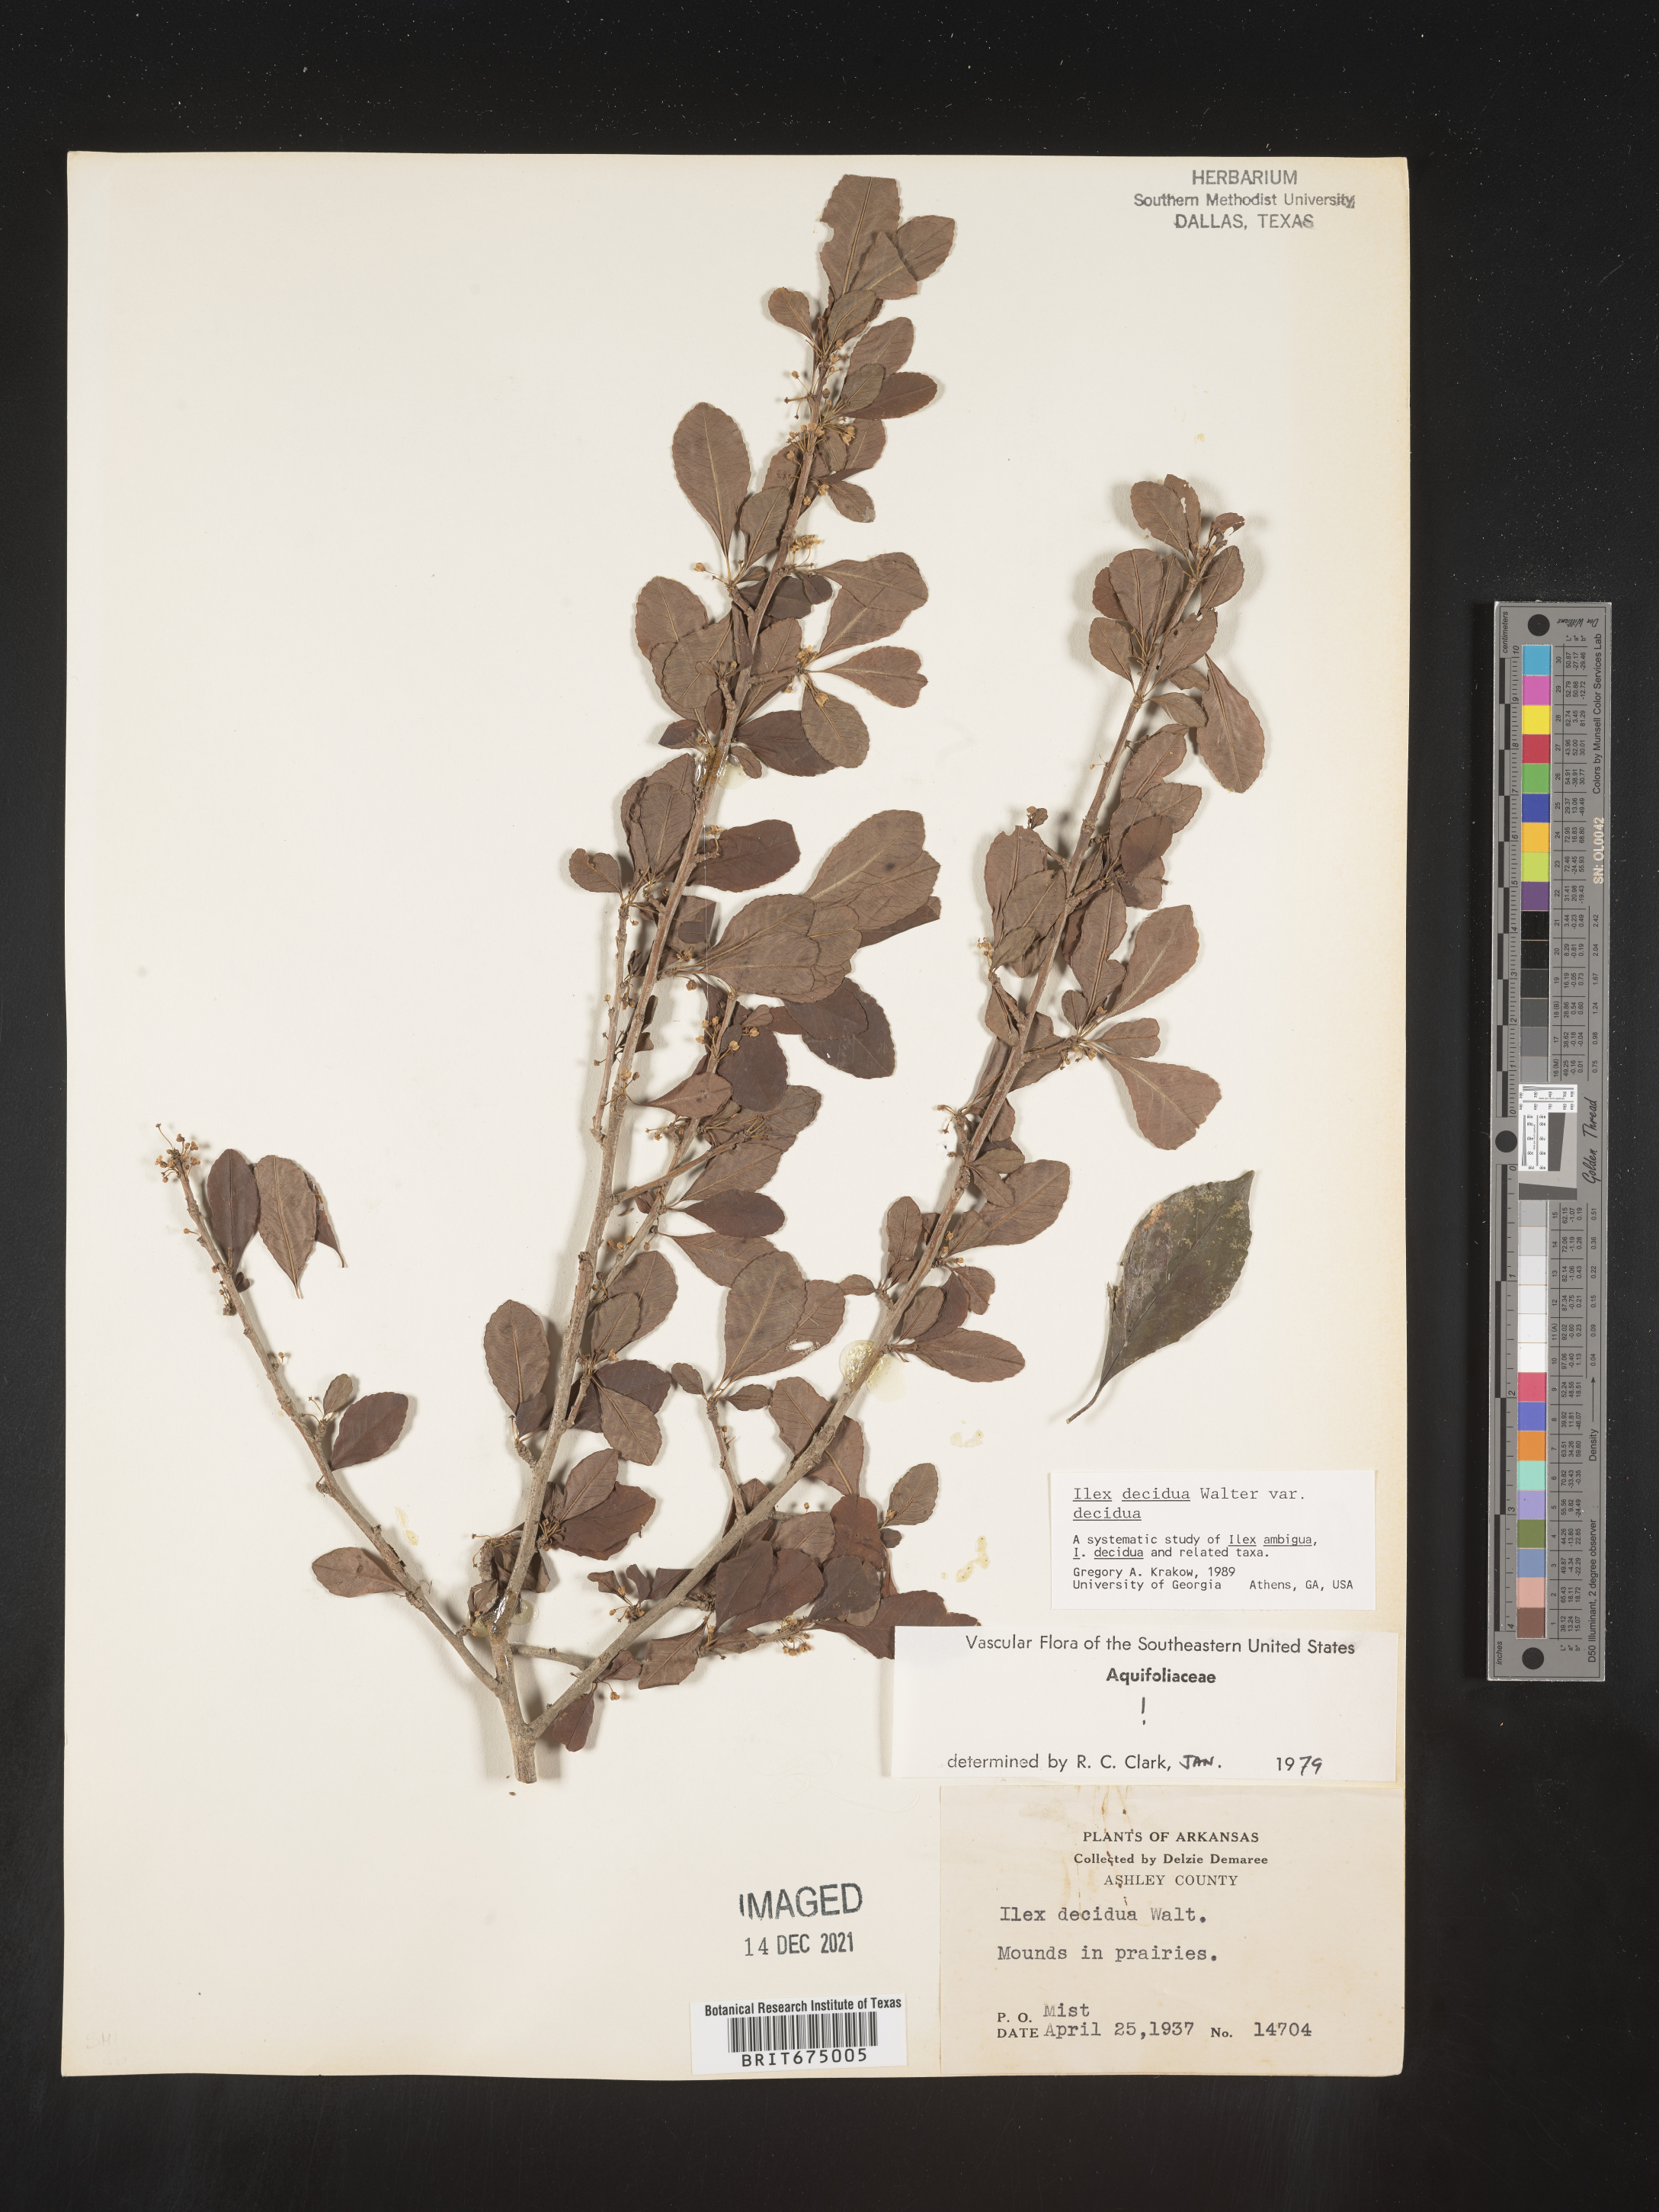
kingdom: Plantae
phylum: Tracheophyta
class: Magnoliopsida
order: Aquifoliales
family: Aquifoliaceae
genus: Ilex
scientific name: Ilex decidua
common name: Possum-haw
